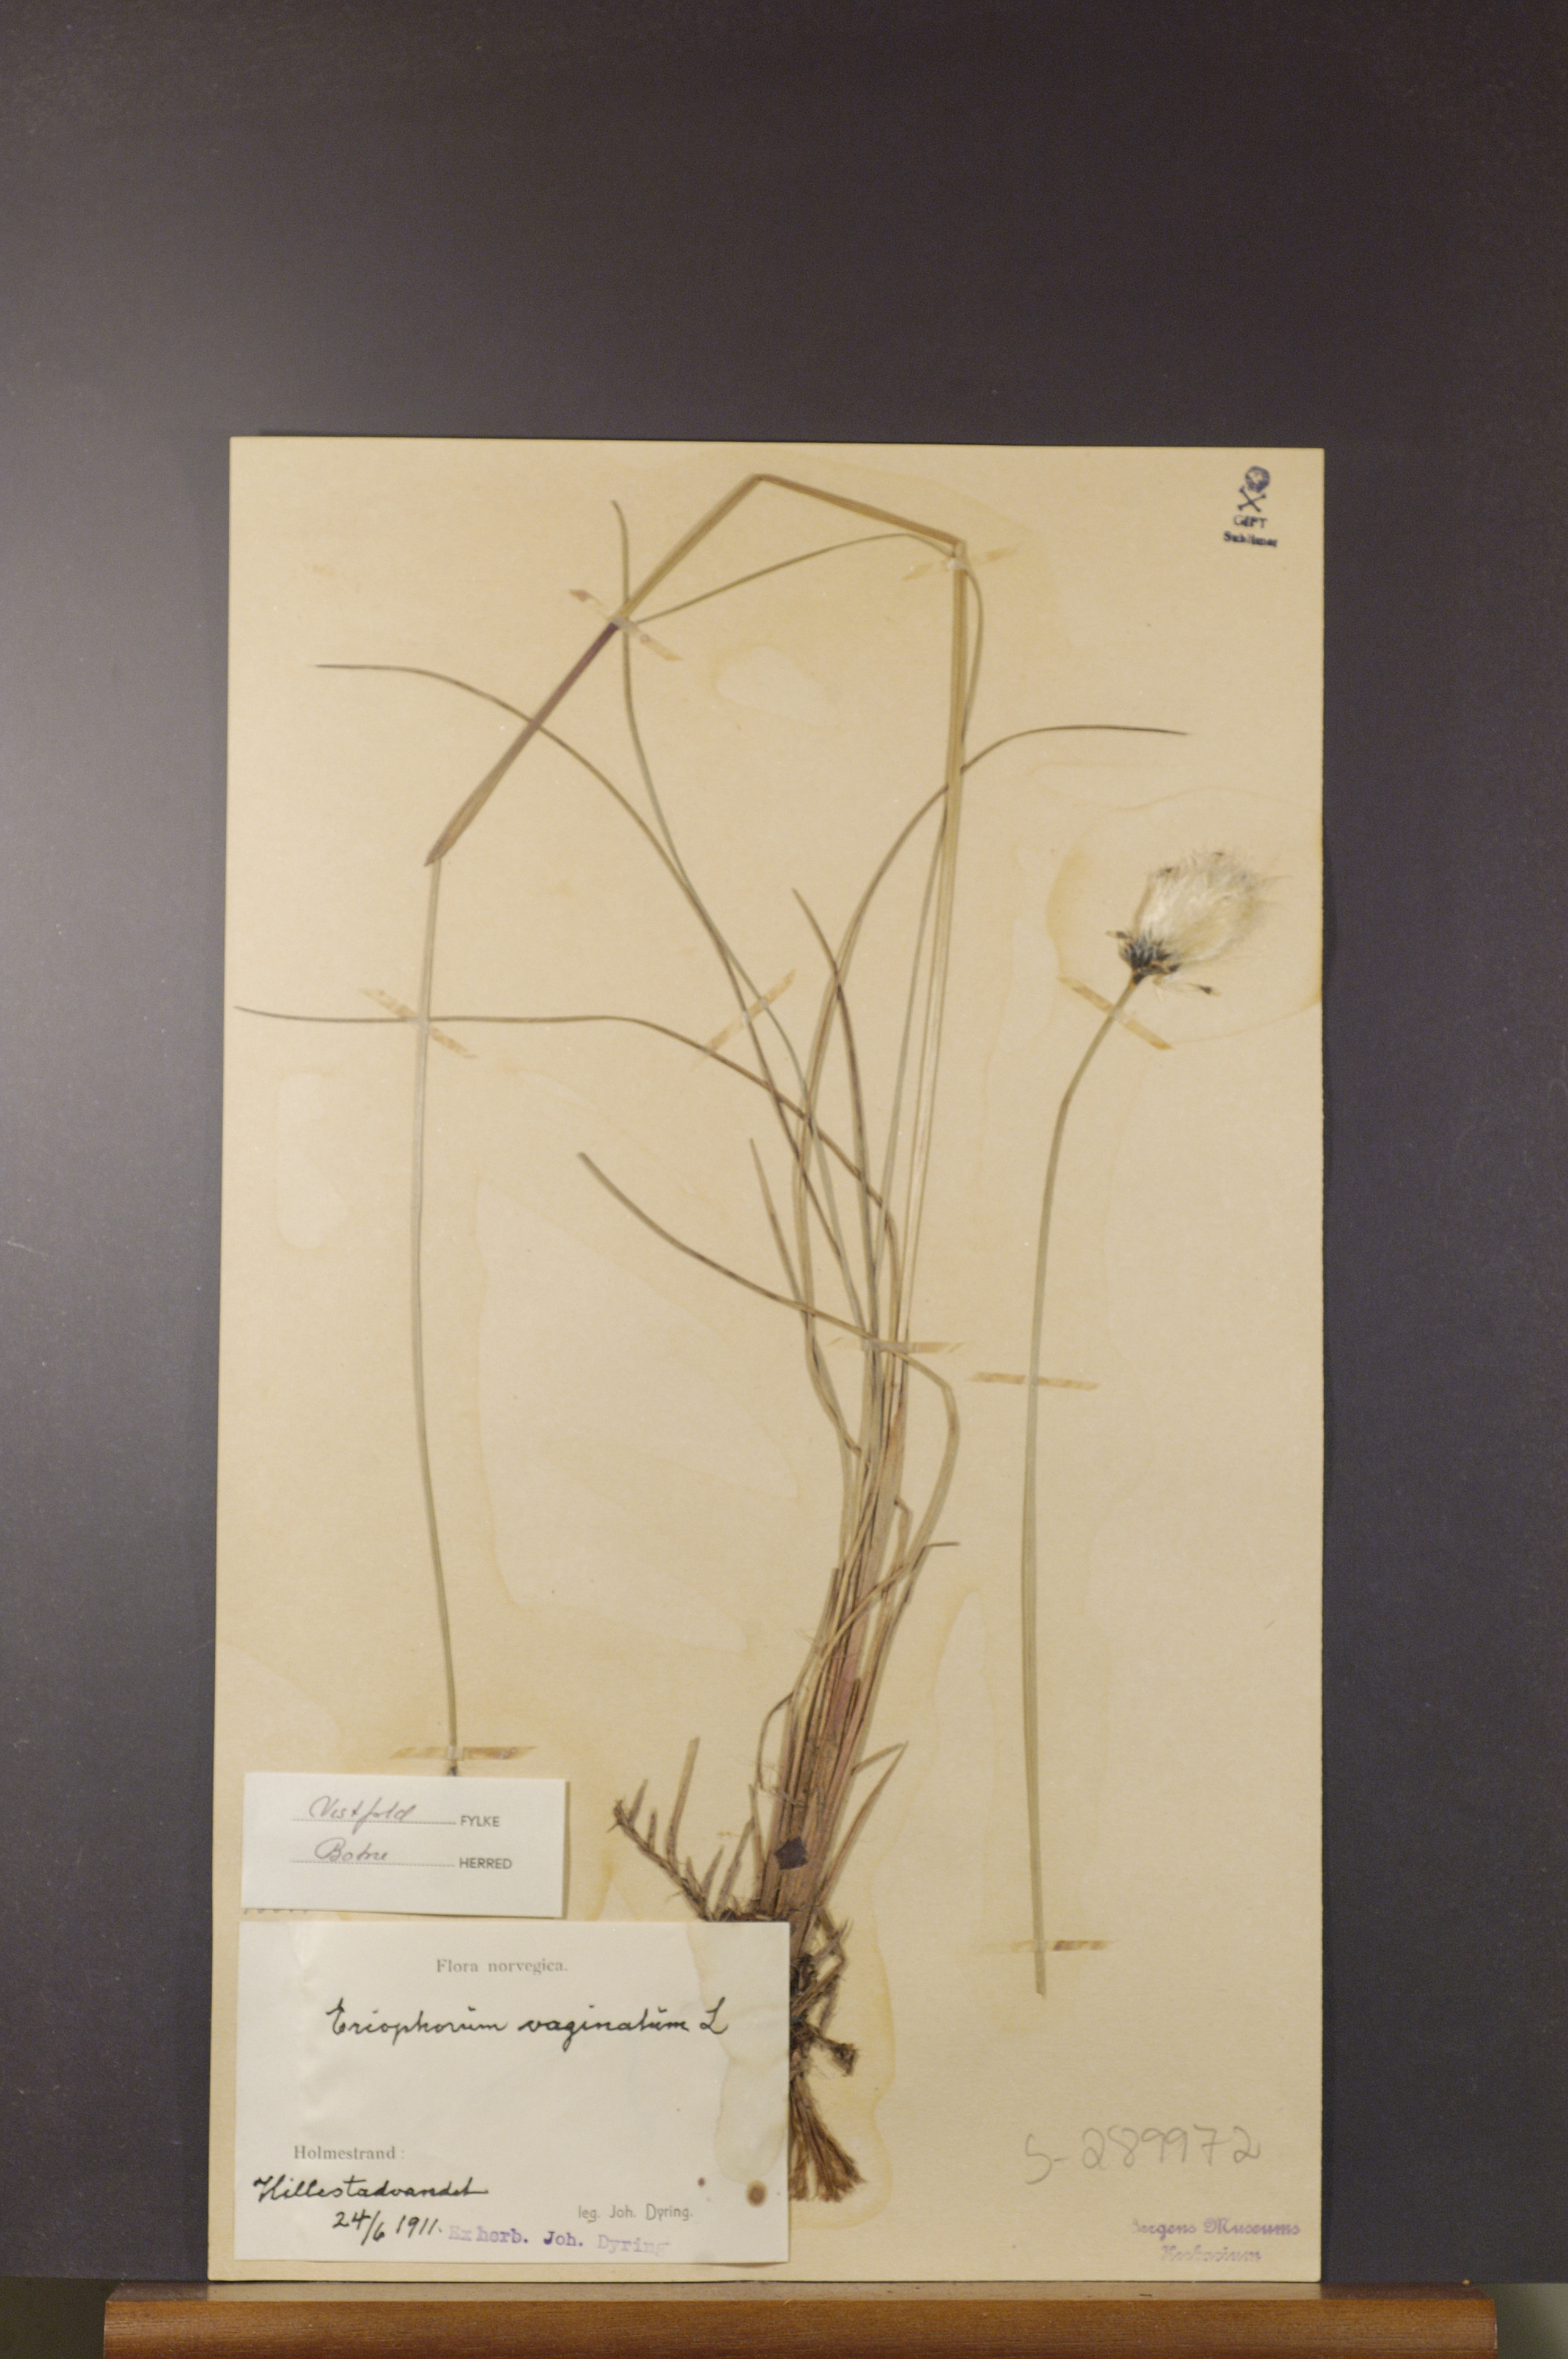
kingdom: Plantae
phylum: Tracheophyta
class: Liliopsida
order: Poales
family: Cyperaceae
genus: Eriophorum
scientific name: Eriophorum vaginatum
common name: Hare's-tail cottongrass
